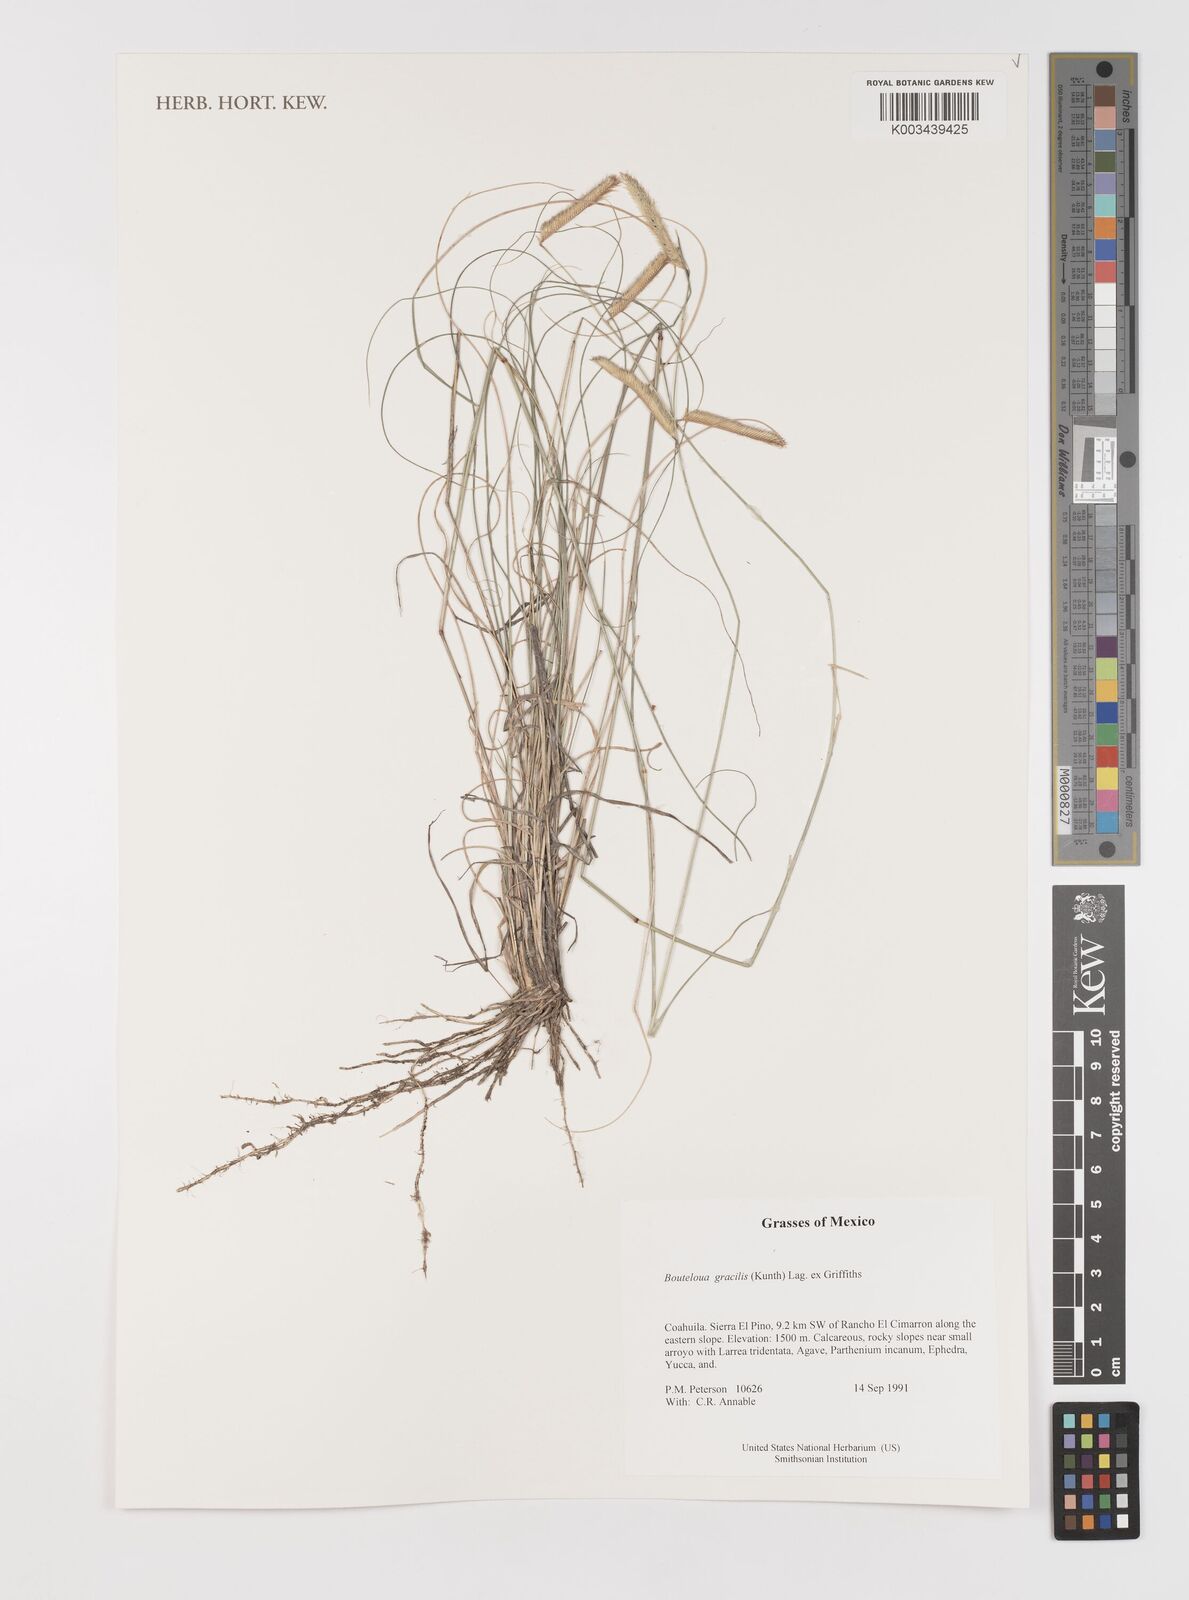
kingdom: Plantae
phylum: Tracheophyta
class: Liliopsida
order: Poales
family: Poaceae
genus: Bouteloua
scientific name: Bouteloua aristidoides
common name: Needle grama
